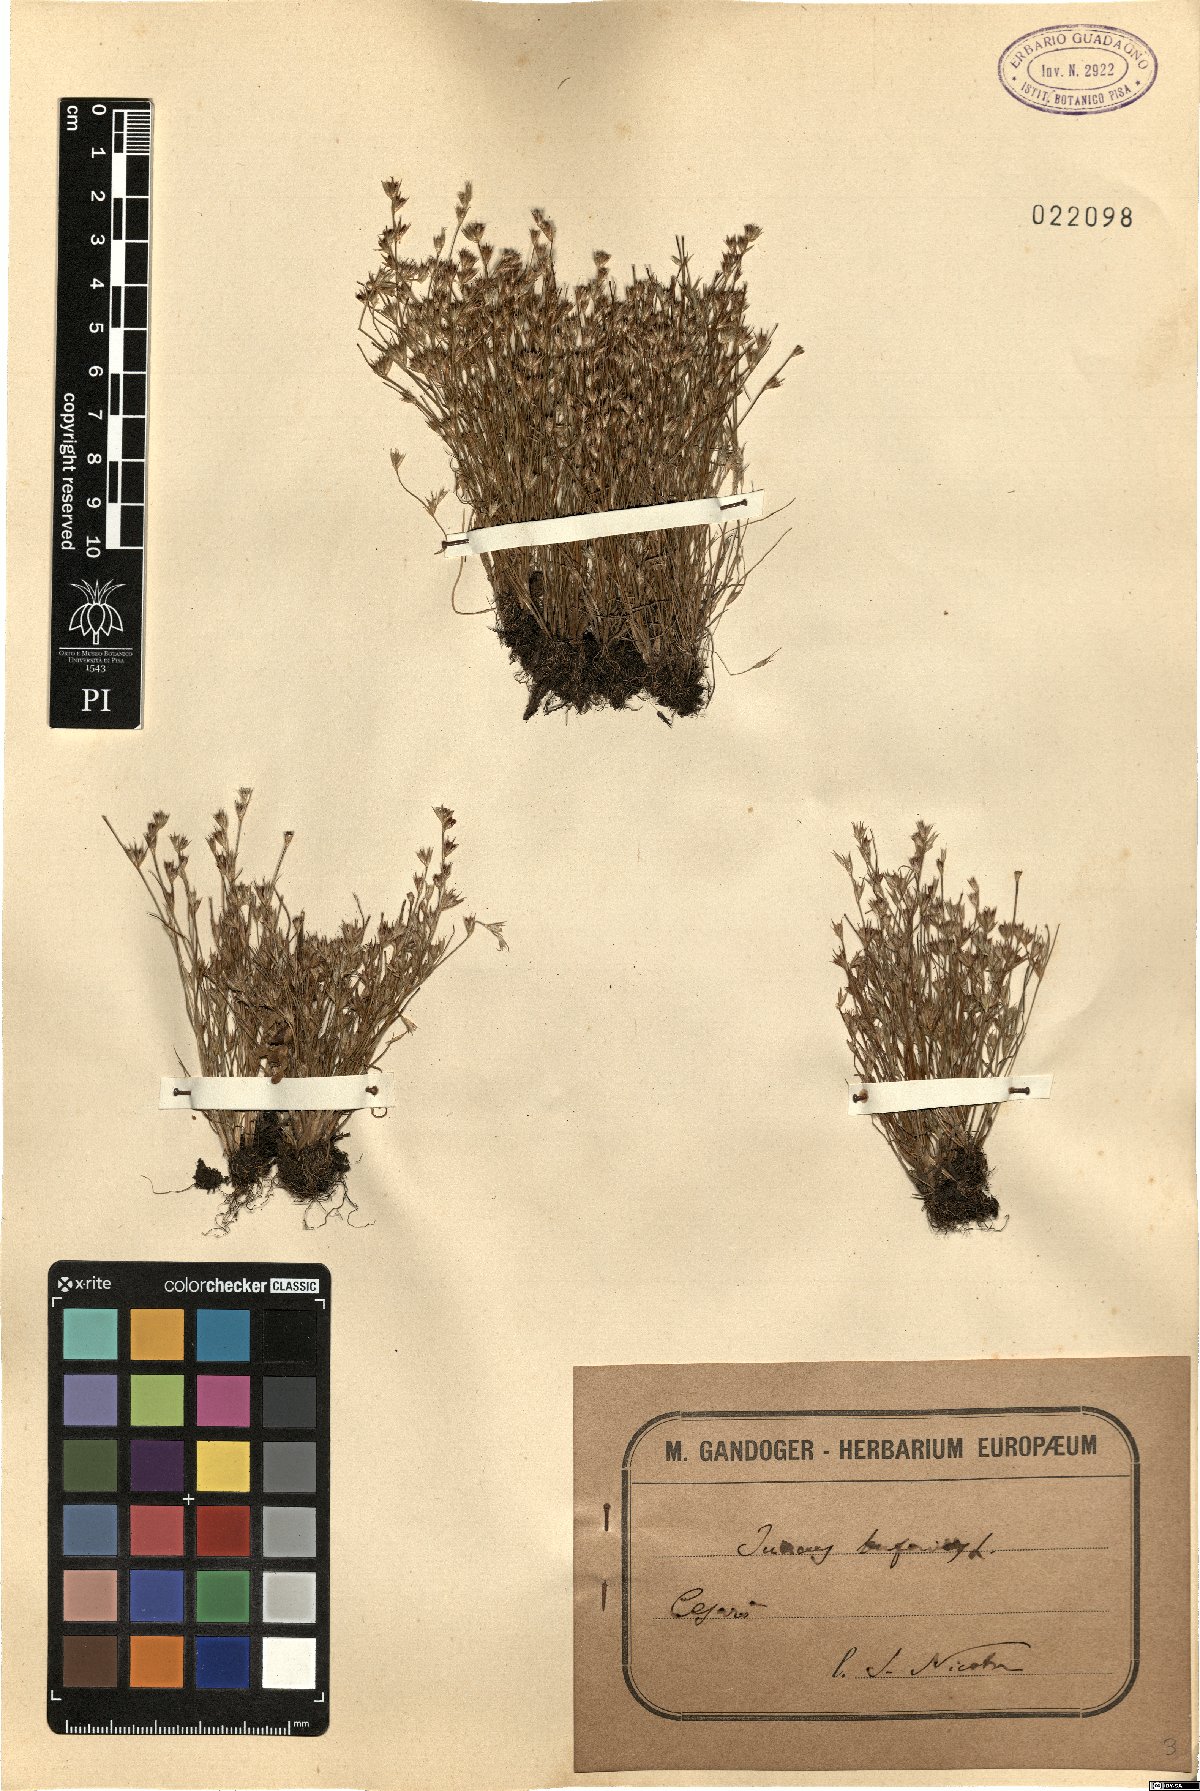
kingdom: Plantae
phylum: Tracheophyta
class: Liliopsida
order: Poales
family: Juncaceae
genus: Juncus
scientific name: Juncus bufonius
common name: Toad rush
